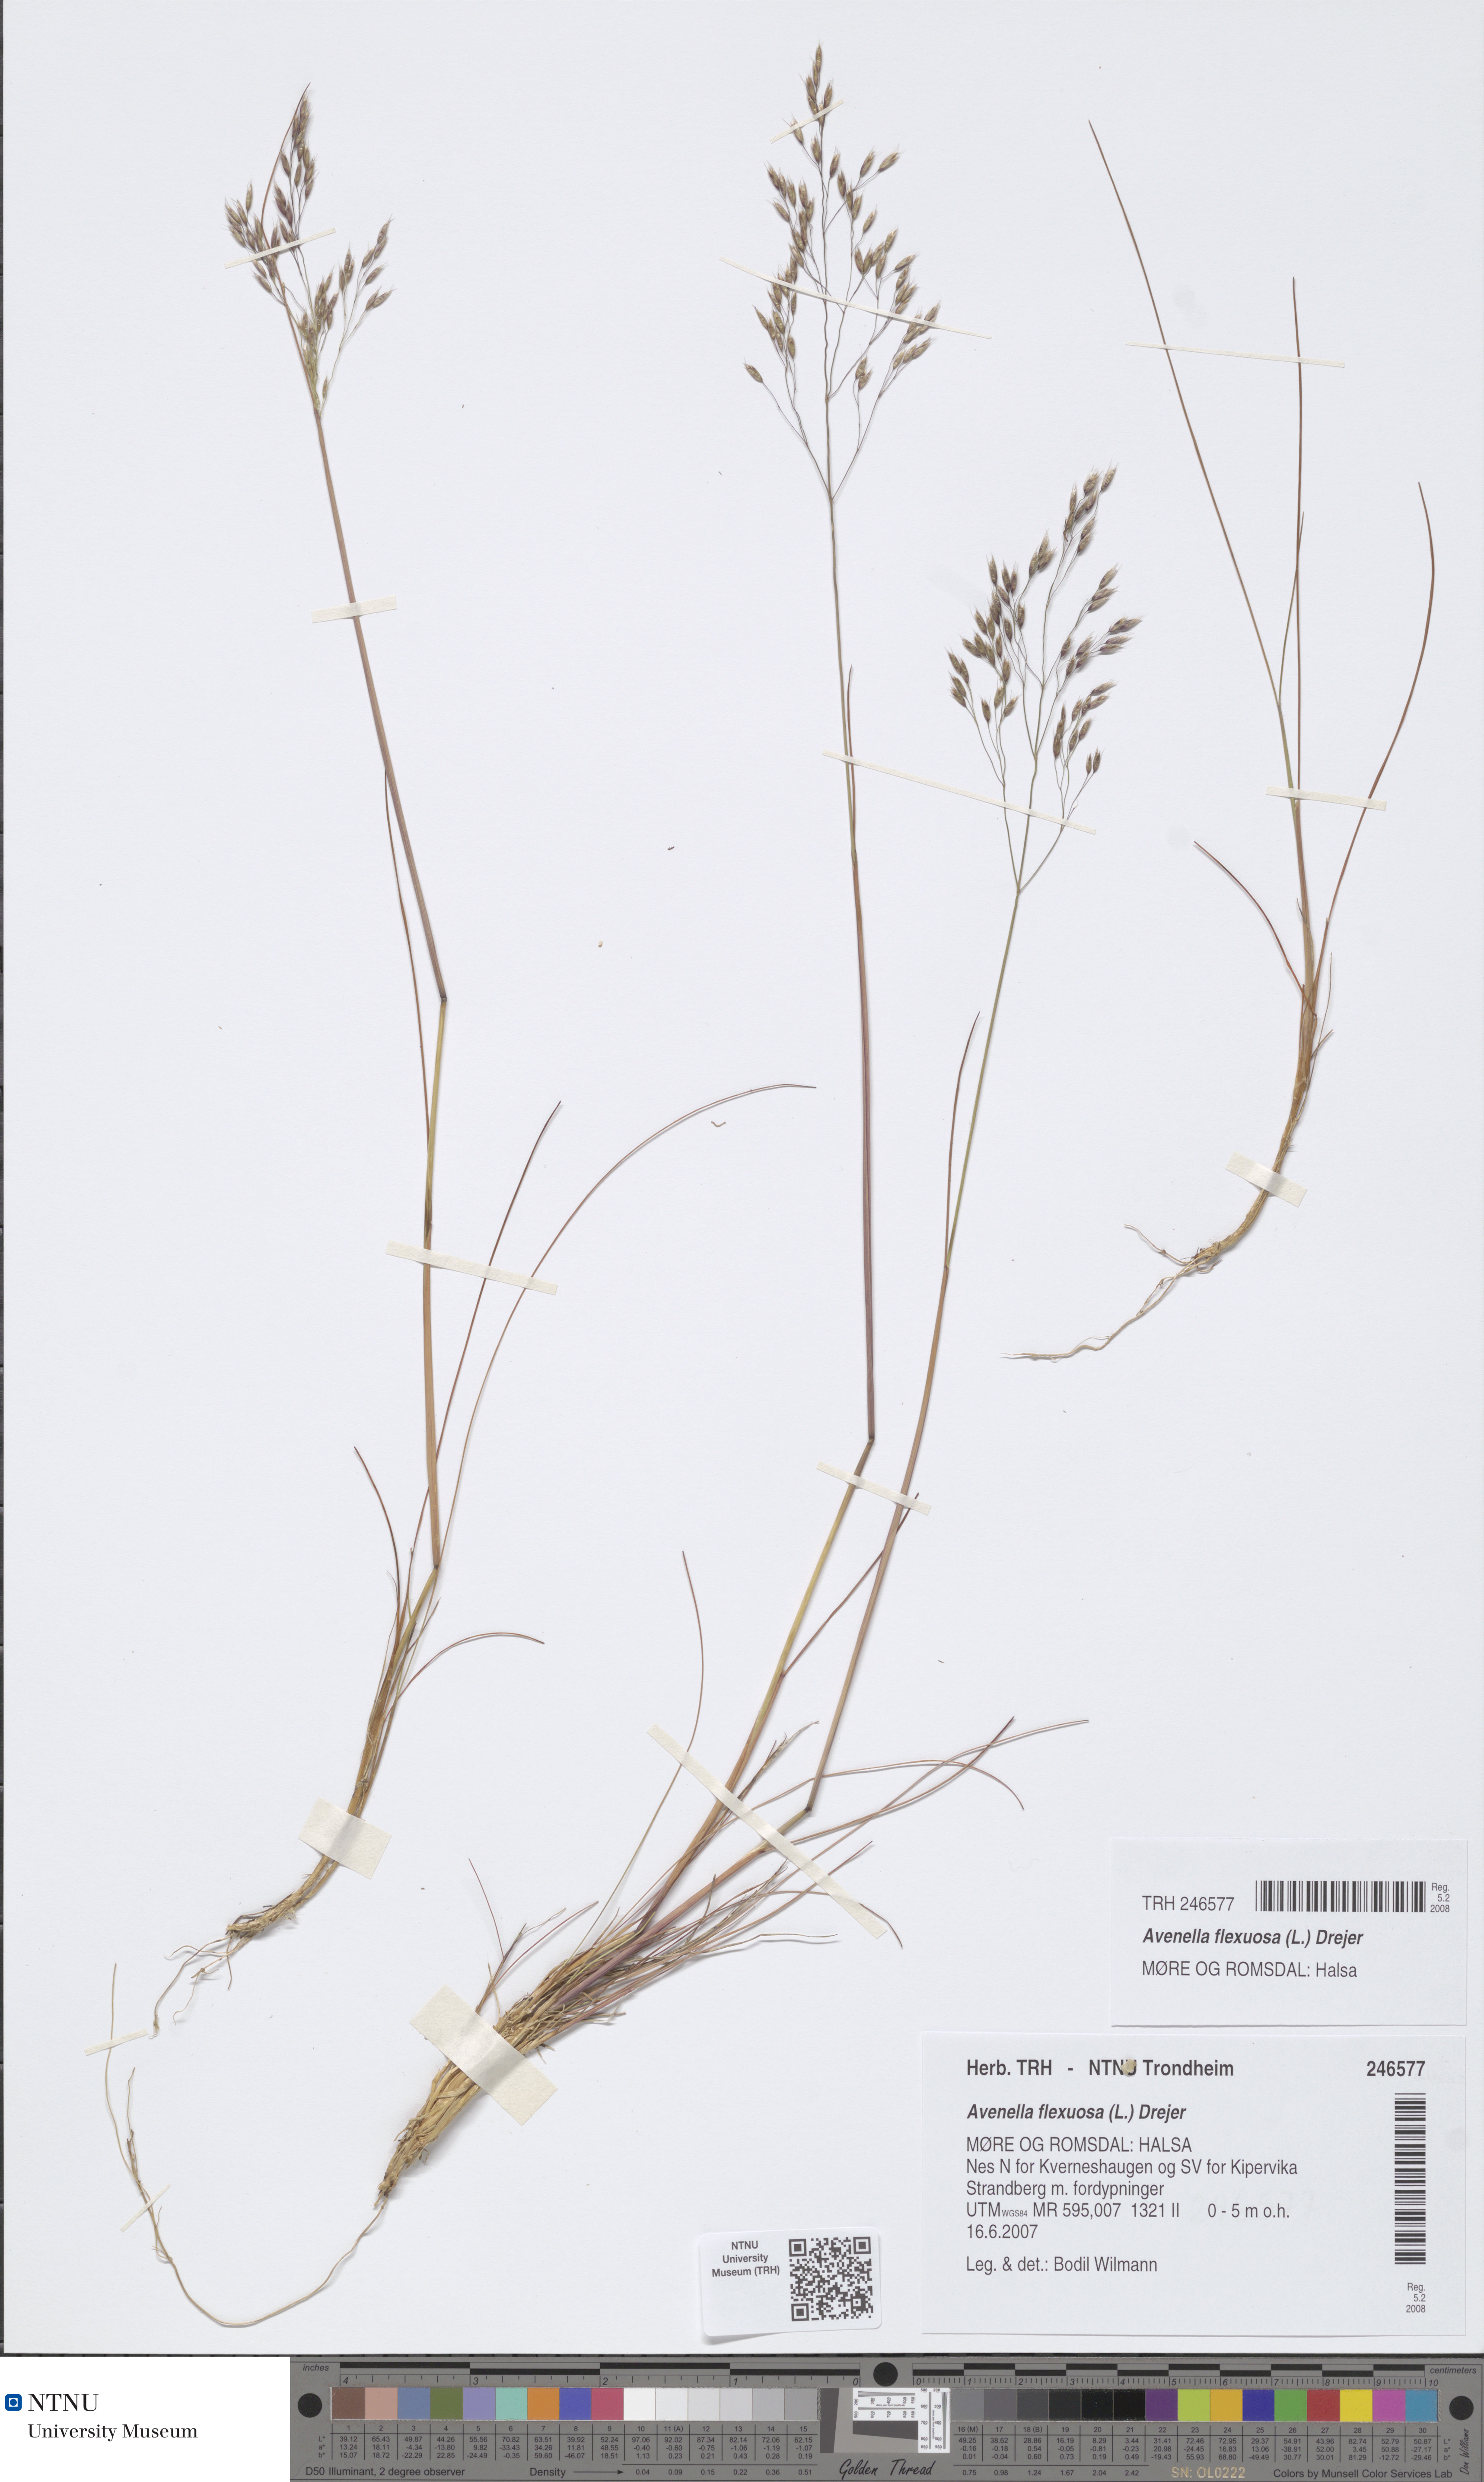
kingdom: Plantae
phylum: Tracheophyta
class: Liliopsida
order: Poales
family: Poaceae
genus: Avenella
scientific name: Avenella flexuosa
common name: Wavy hairgrass
